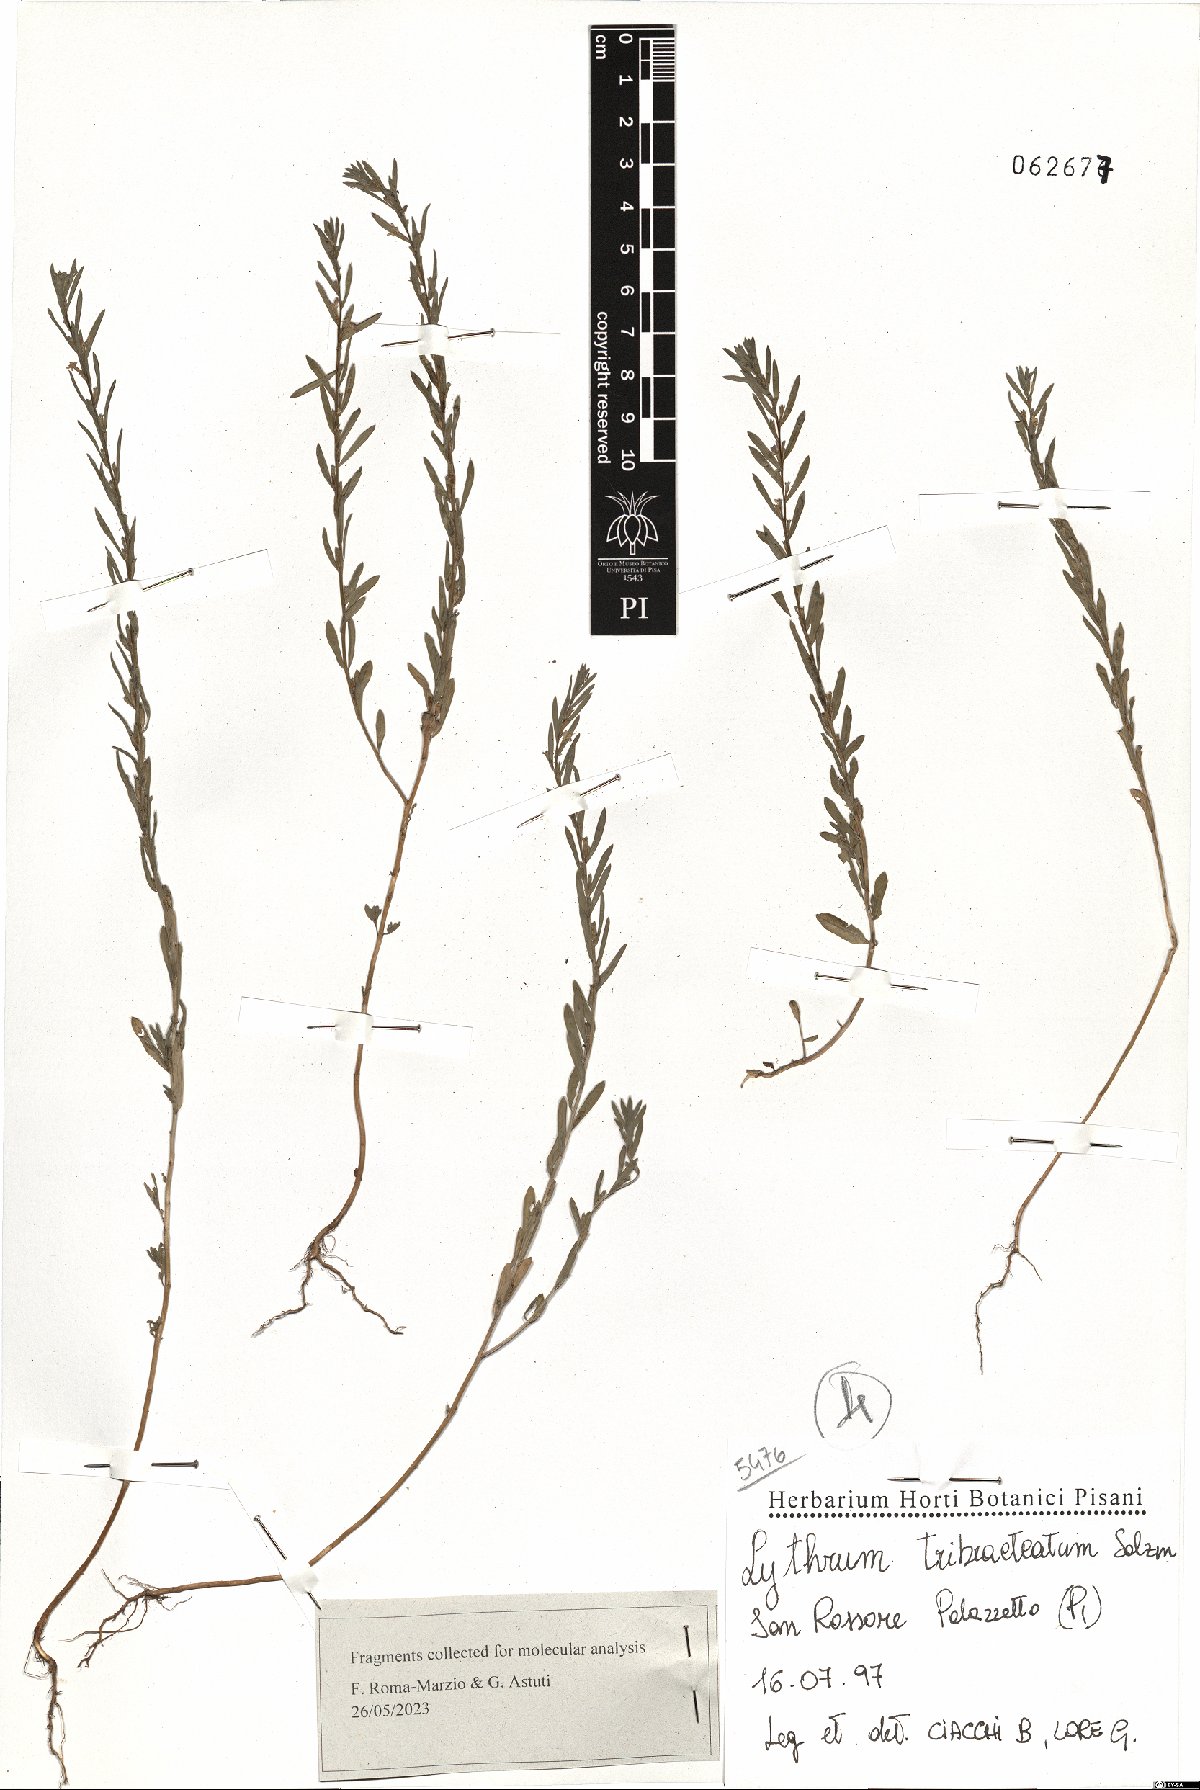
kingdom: Plantae
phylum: Tracheophyta
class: Magnoliopsida
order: Myrtales
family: Lythraceae
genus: Lythrum
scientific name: Lythrum tribracteatum
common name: Threebract loosestrife
